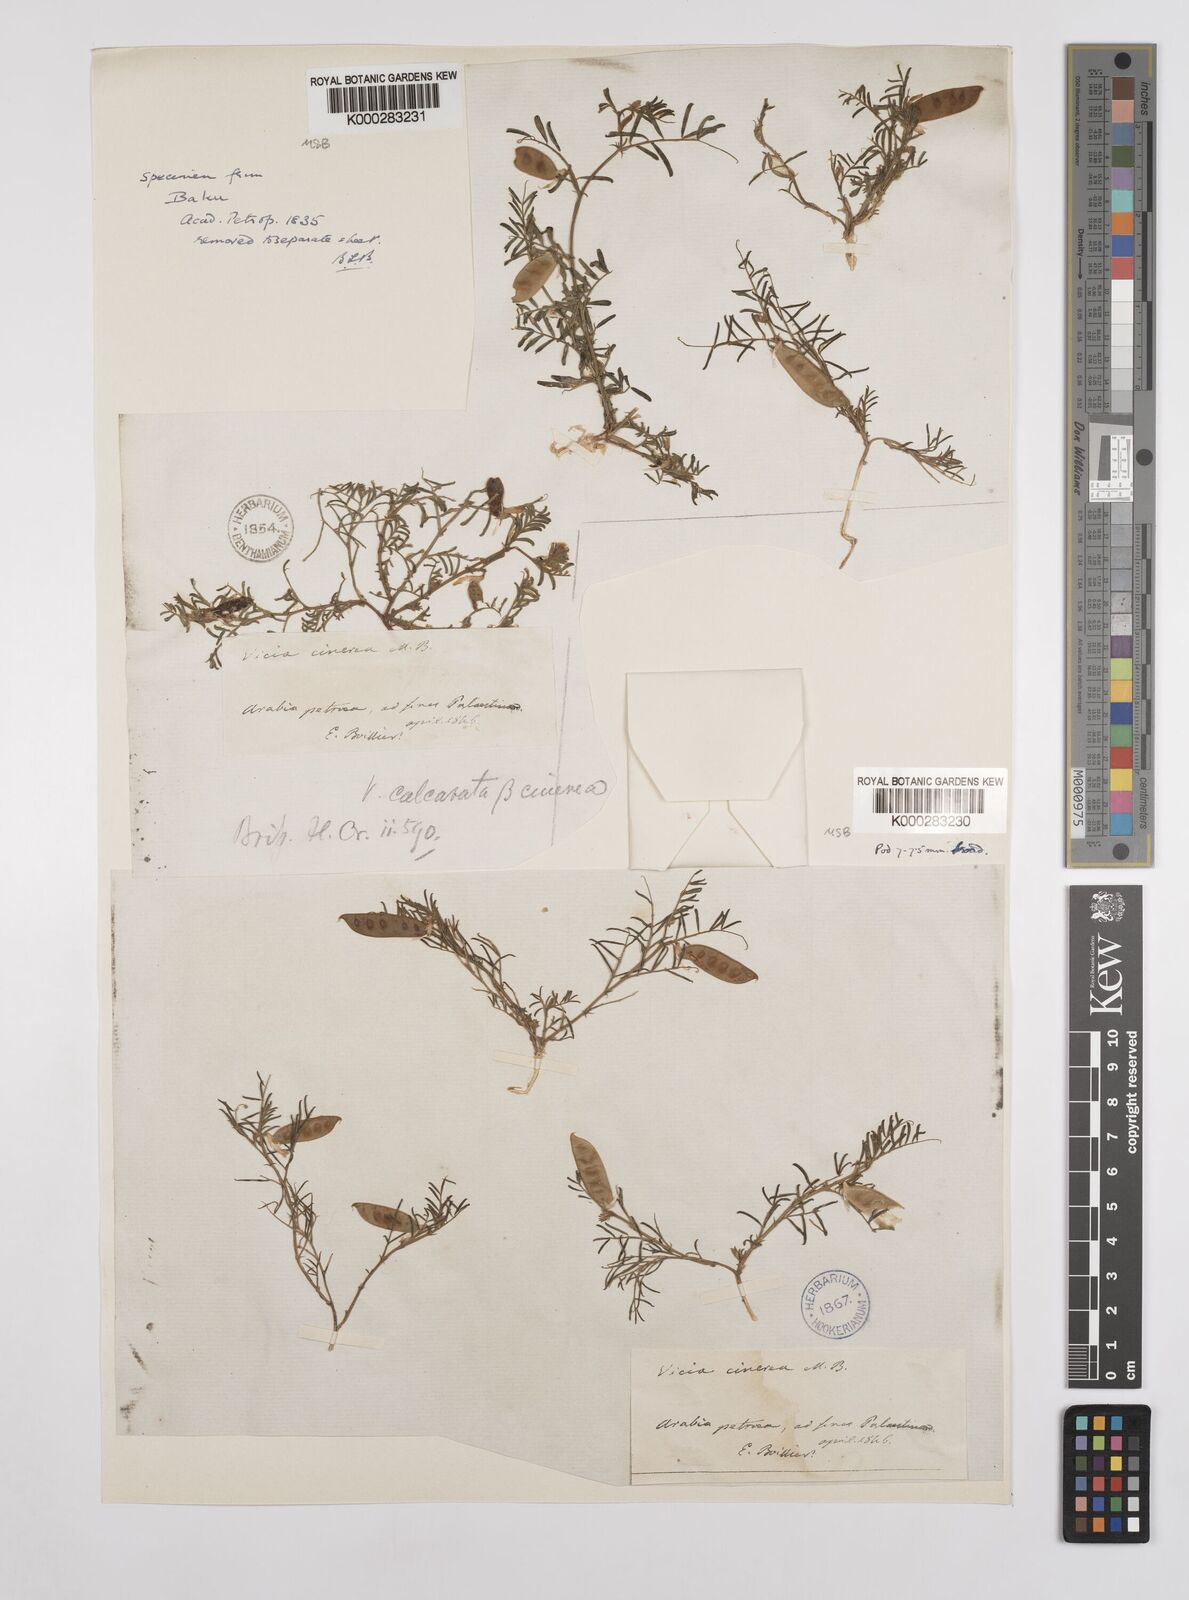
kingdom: Plantae
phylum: Tracheophyta
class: Magnoliopsida
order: Fabales
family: Fabaceae
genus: Vicia
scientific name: Vicia monantha
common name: Barn vetch
